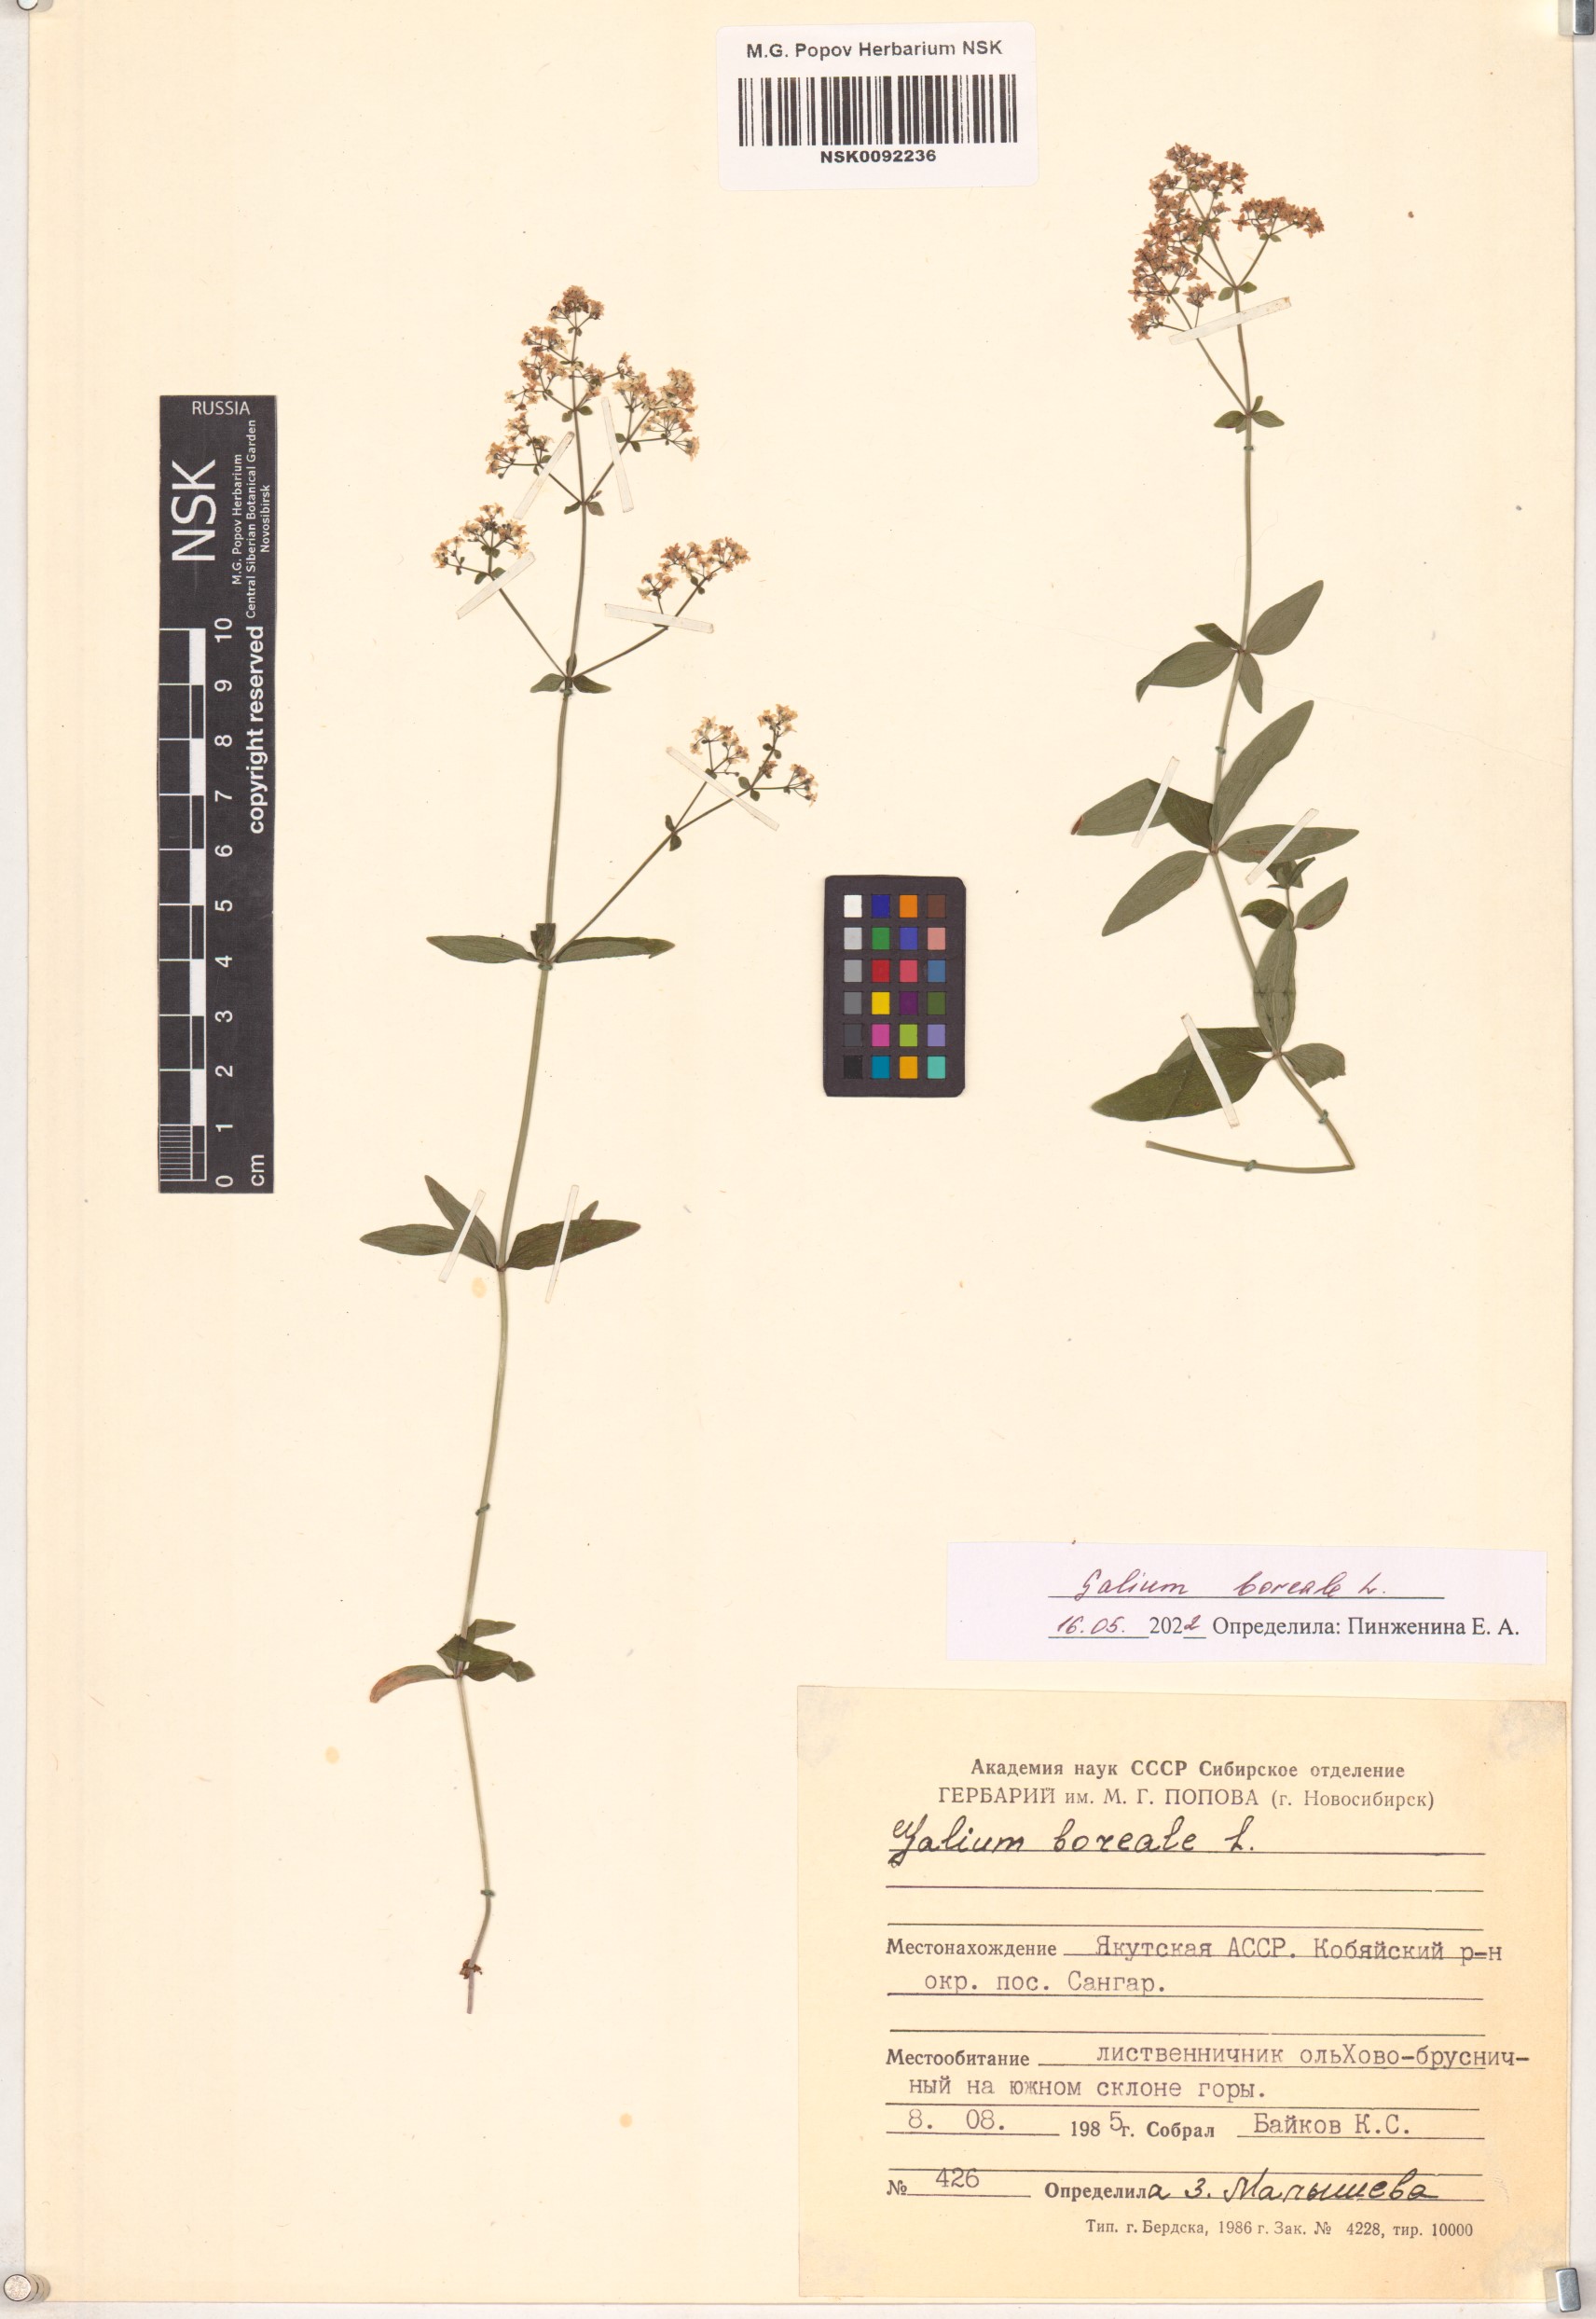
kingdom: Plantae
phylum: Tracheophyta
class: Magnoliopsida
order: Gentianales
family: Rubiaceae
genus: Galium
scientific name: Galium boreale
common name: Northern bedstraw
